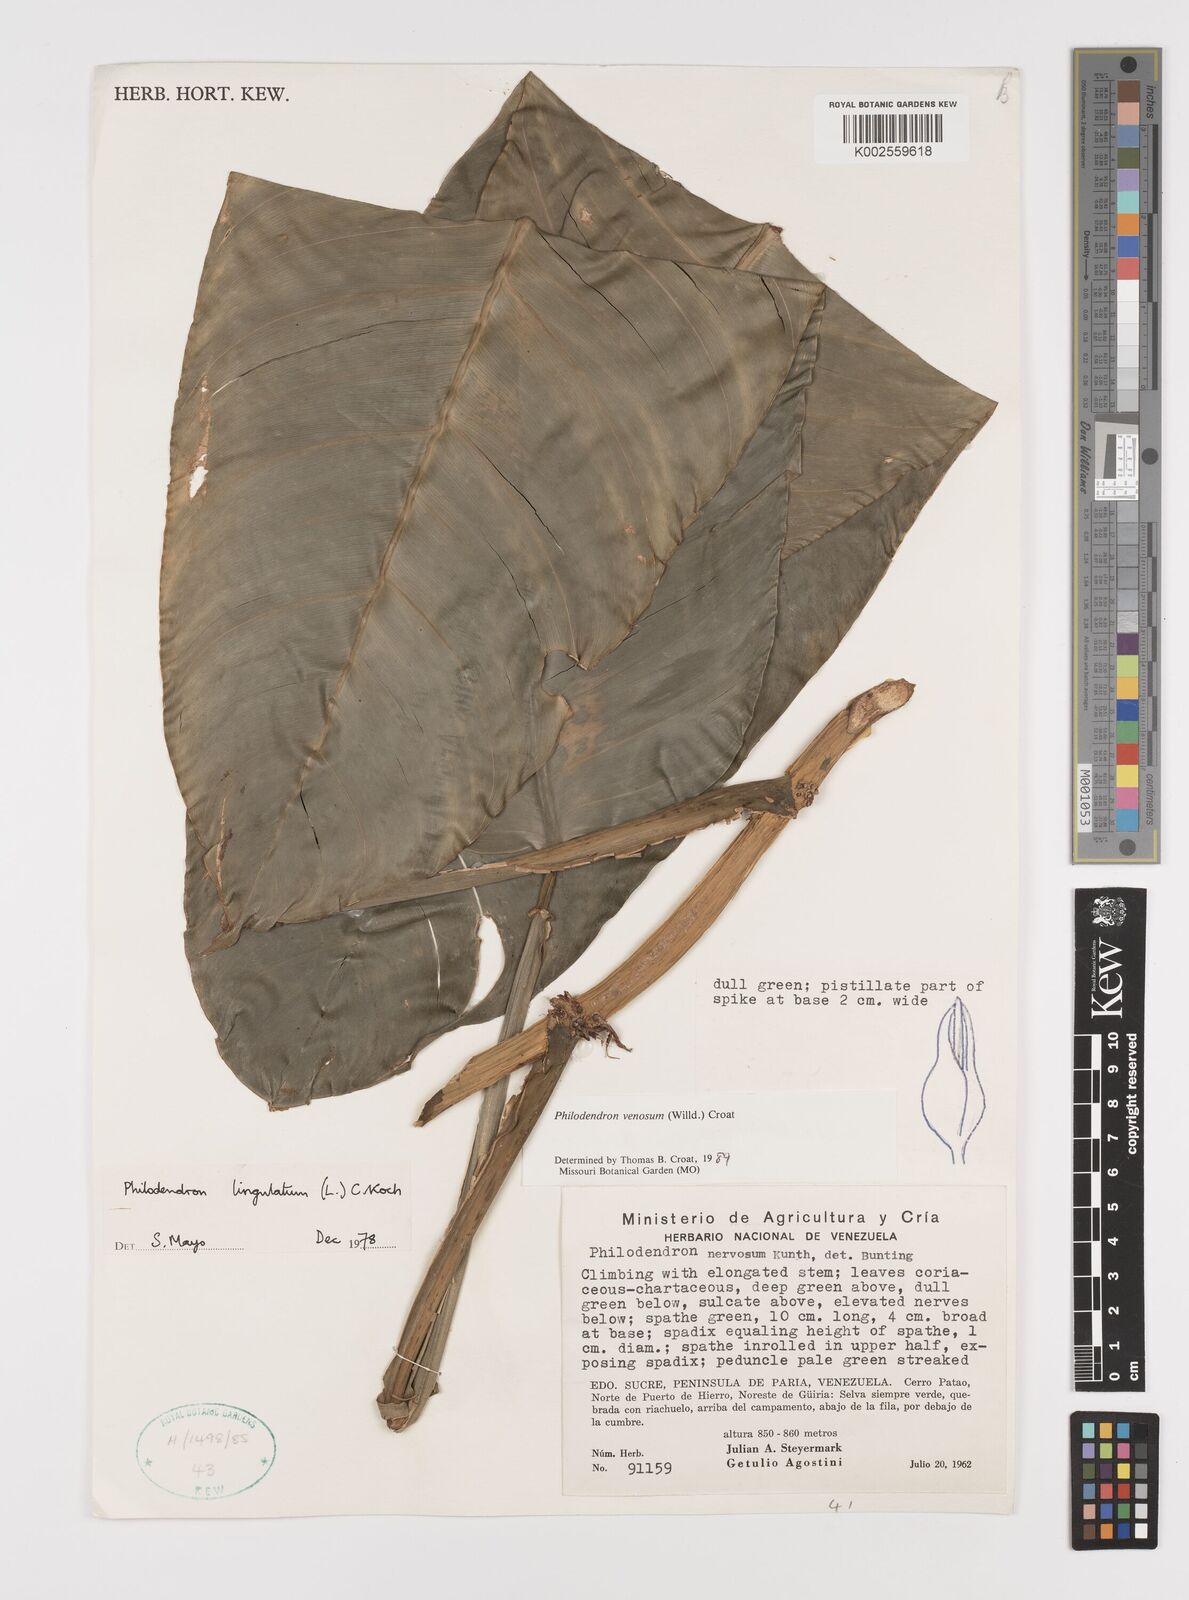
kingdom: Plantae
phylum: Tracheophyta
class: Liliopsida
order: Alismatales
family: Araceae
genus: Philodendron
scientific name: Philodendron venosum
